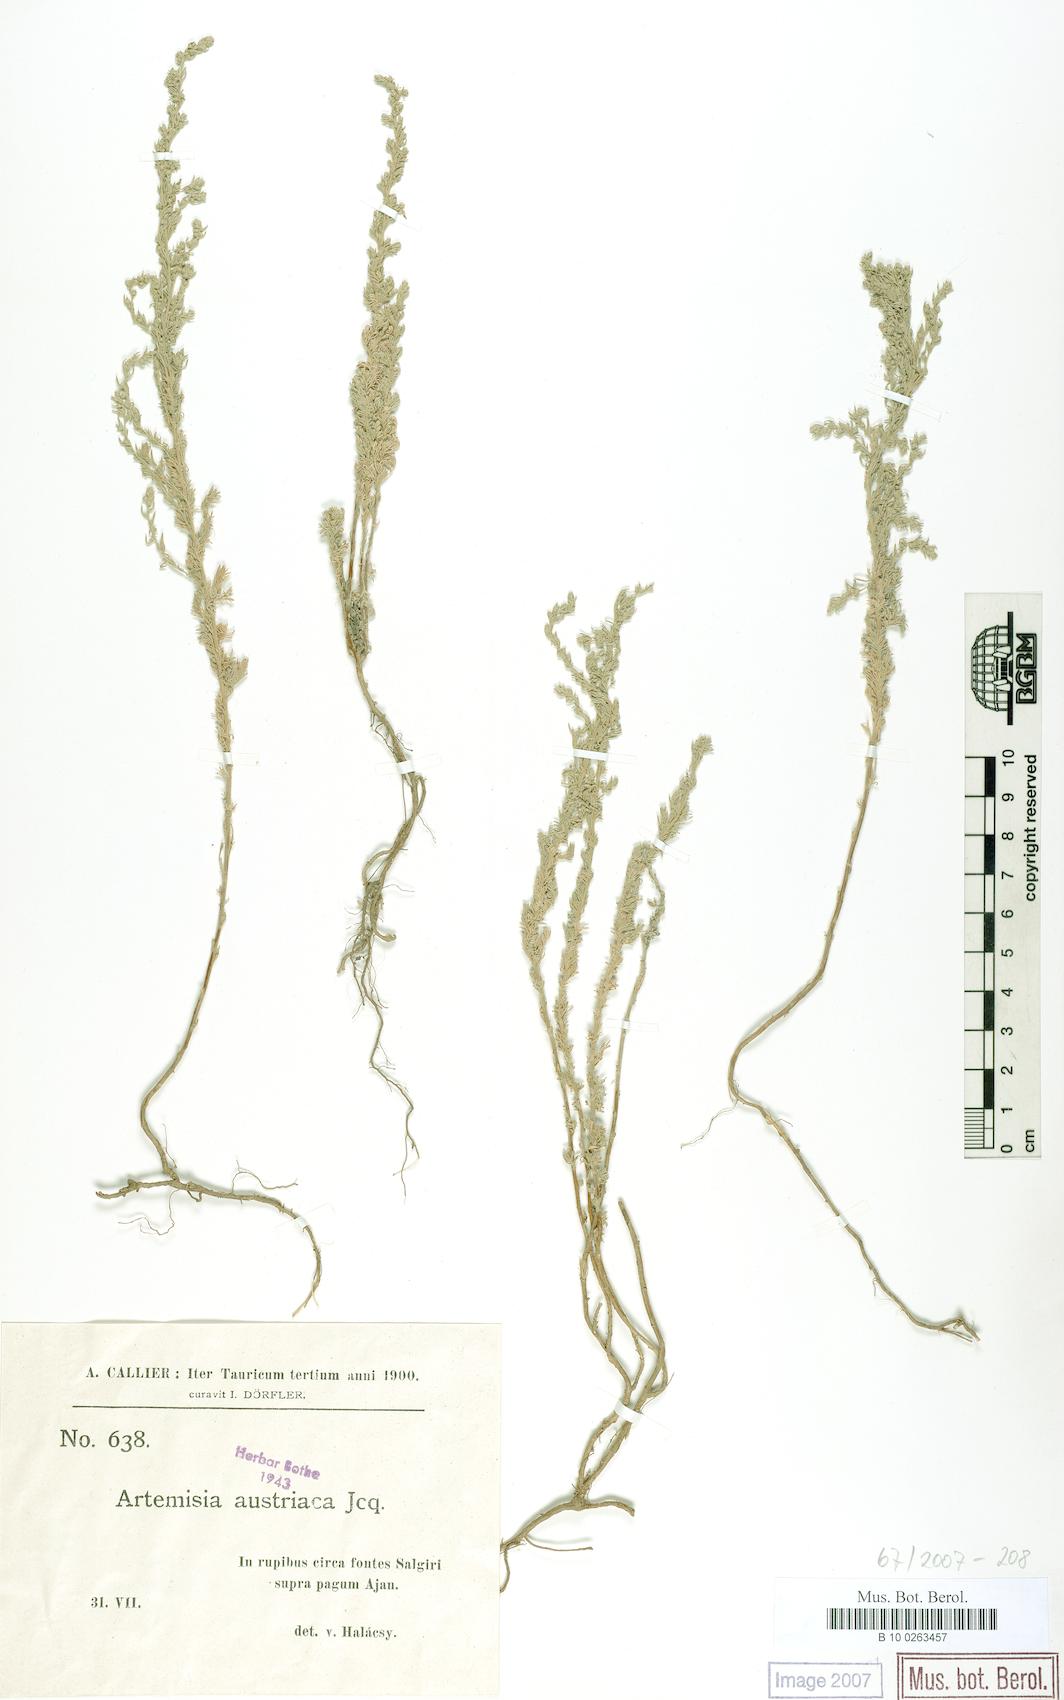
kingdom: Plantae
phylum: Tracheophyta
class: Magnoliopsida
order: Asterales
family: Asteraceae
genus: Artemisia
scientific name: Artemisia austriaca
